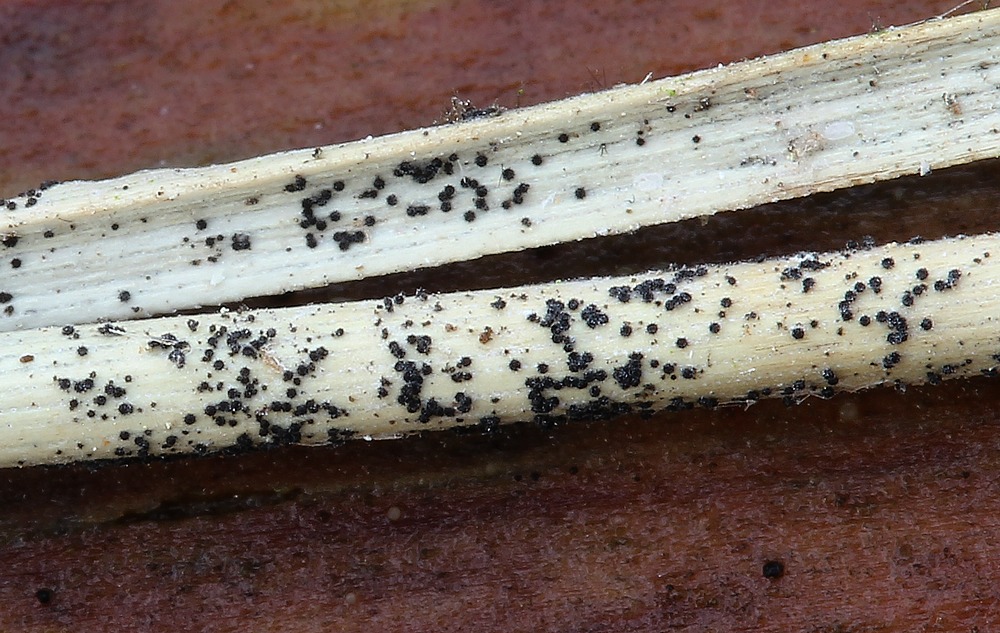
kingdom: Fungi
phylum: Ascomycota
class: Sordariomycetes
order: Hypocreales
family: Niessliaceae
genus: Niesslia
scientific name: Niesslia exilis
